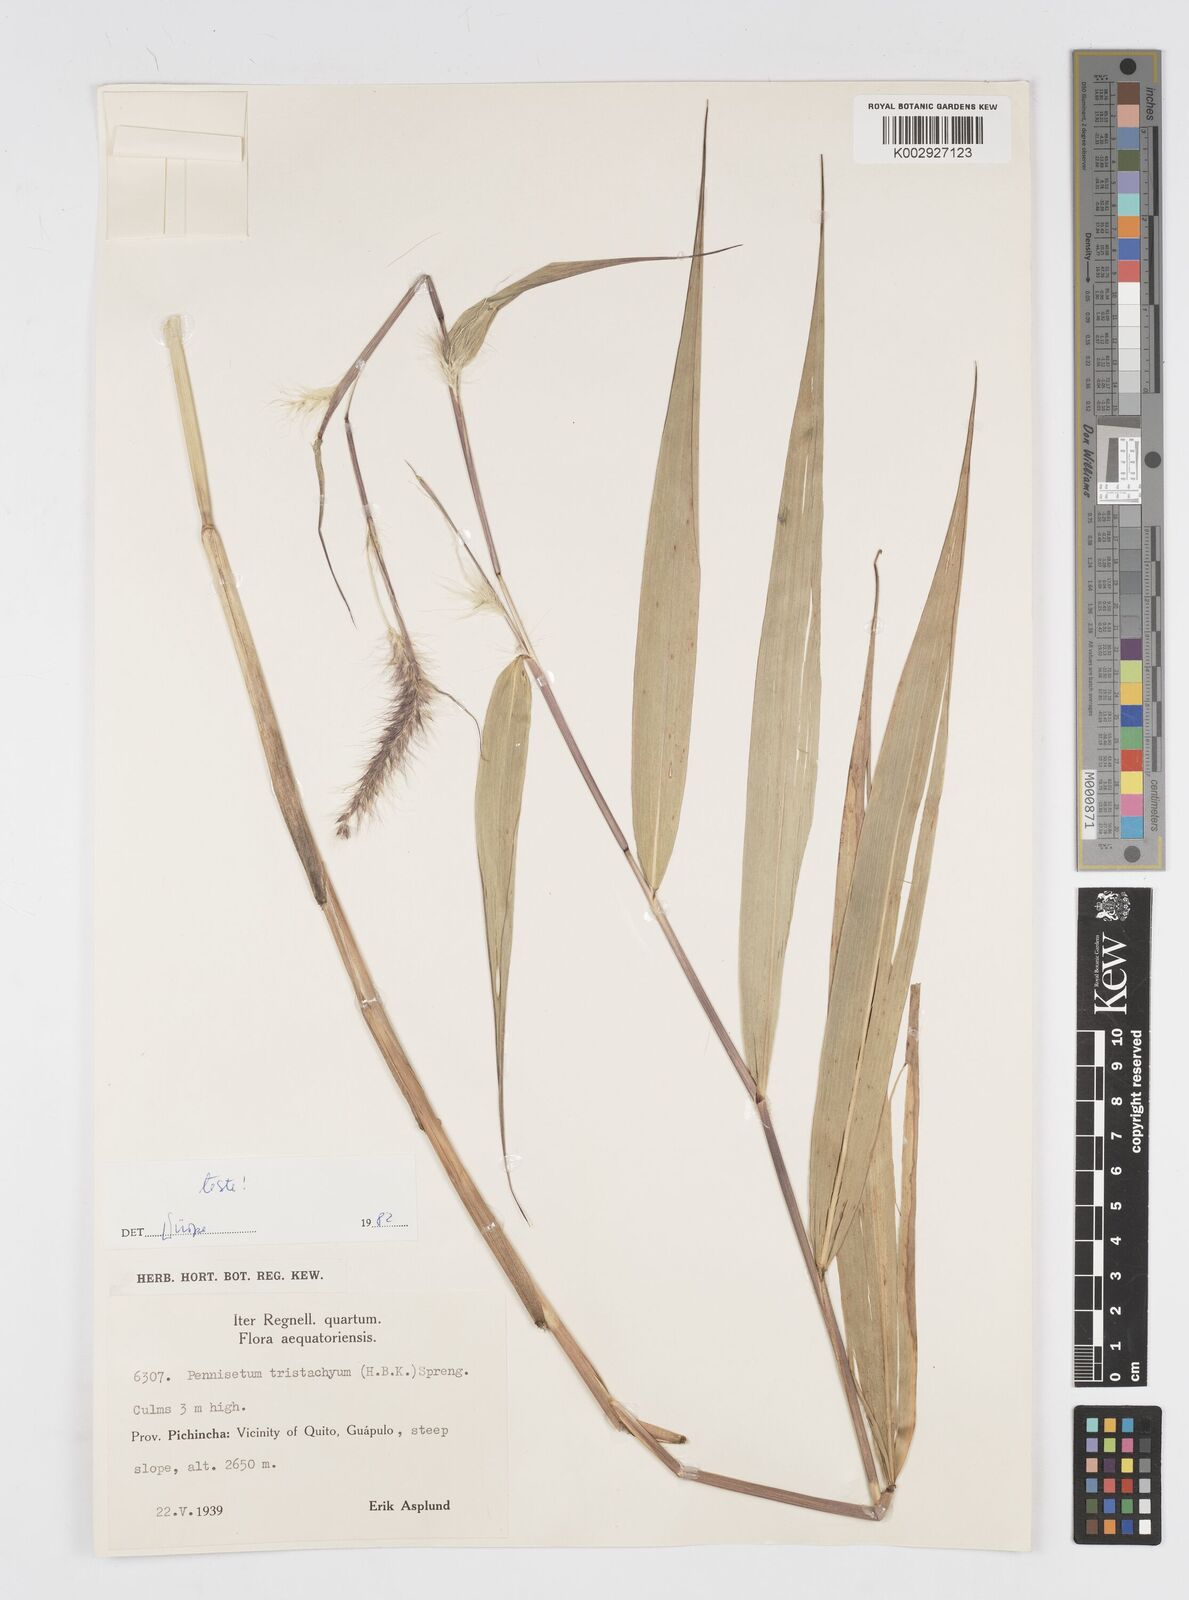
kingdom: Plantae
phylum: Tracheophyta
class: Liliopsida
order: Poales
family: Poaceae
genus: Cenchrus
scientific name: Cenchrus tristachyus
